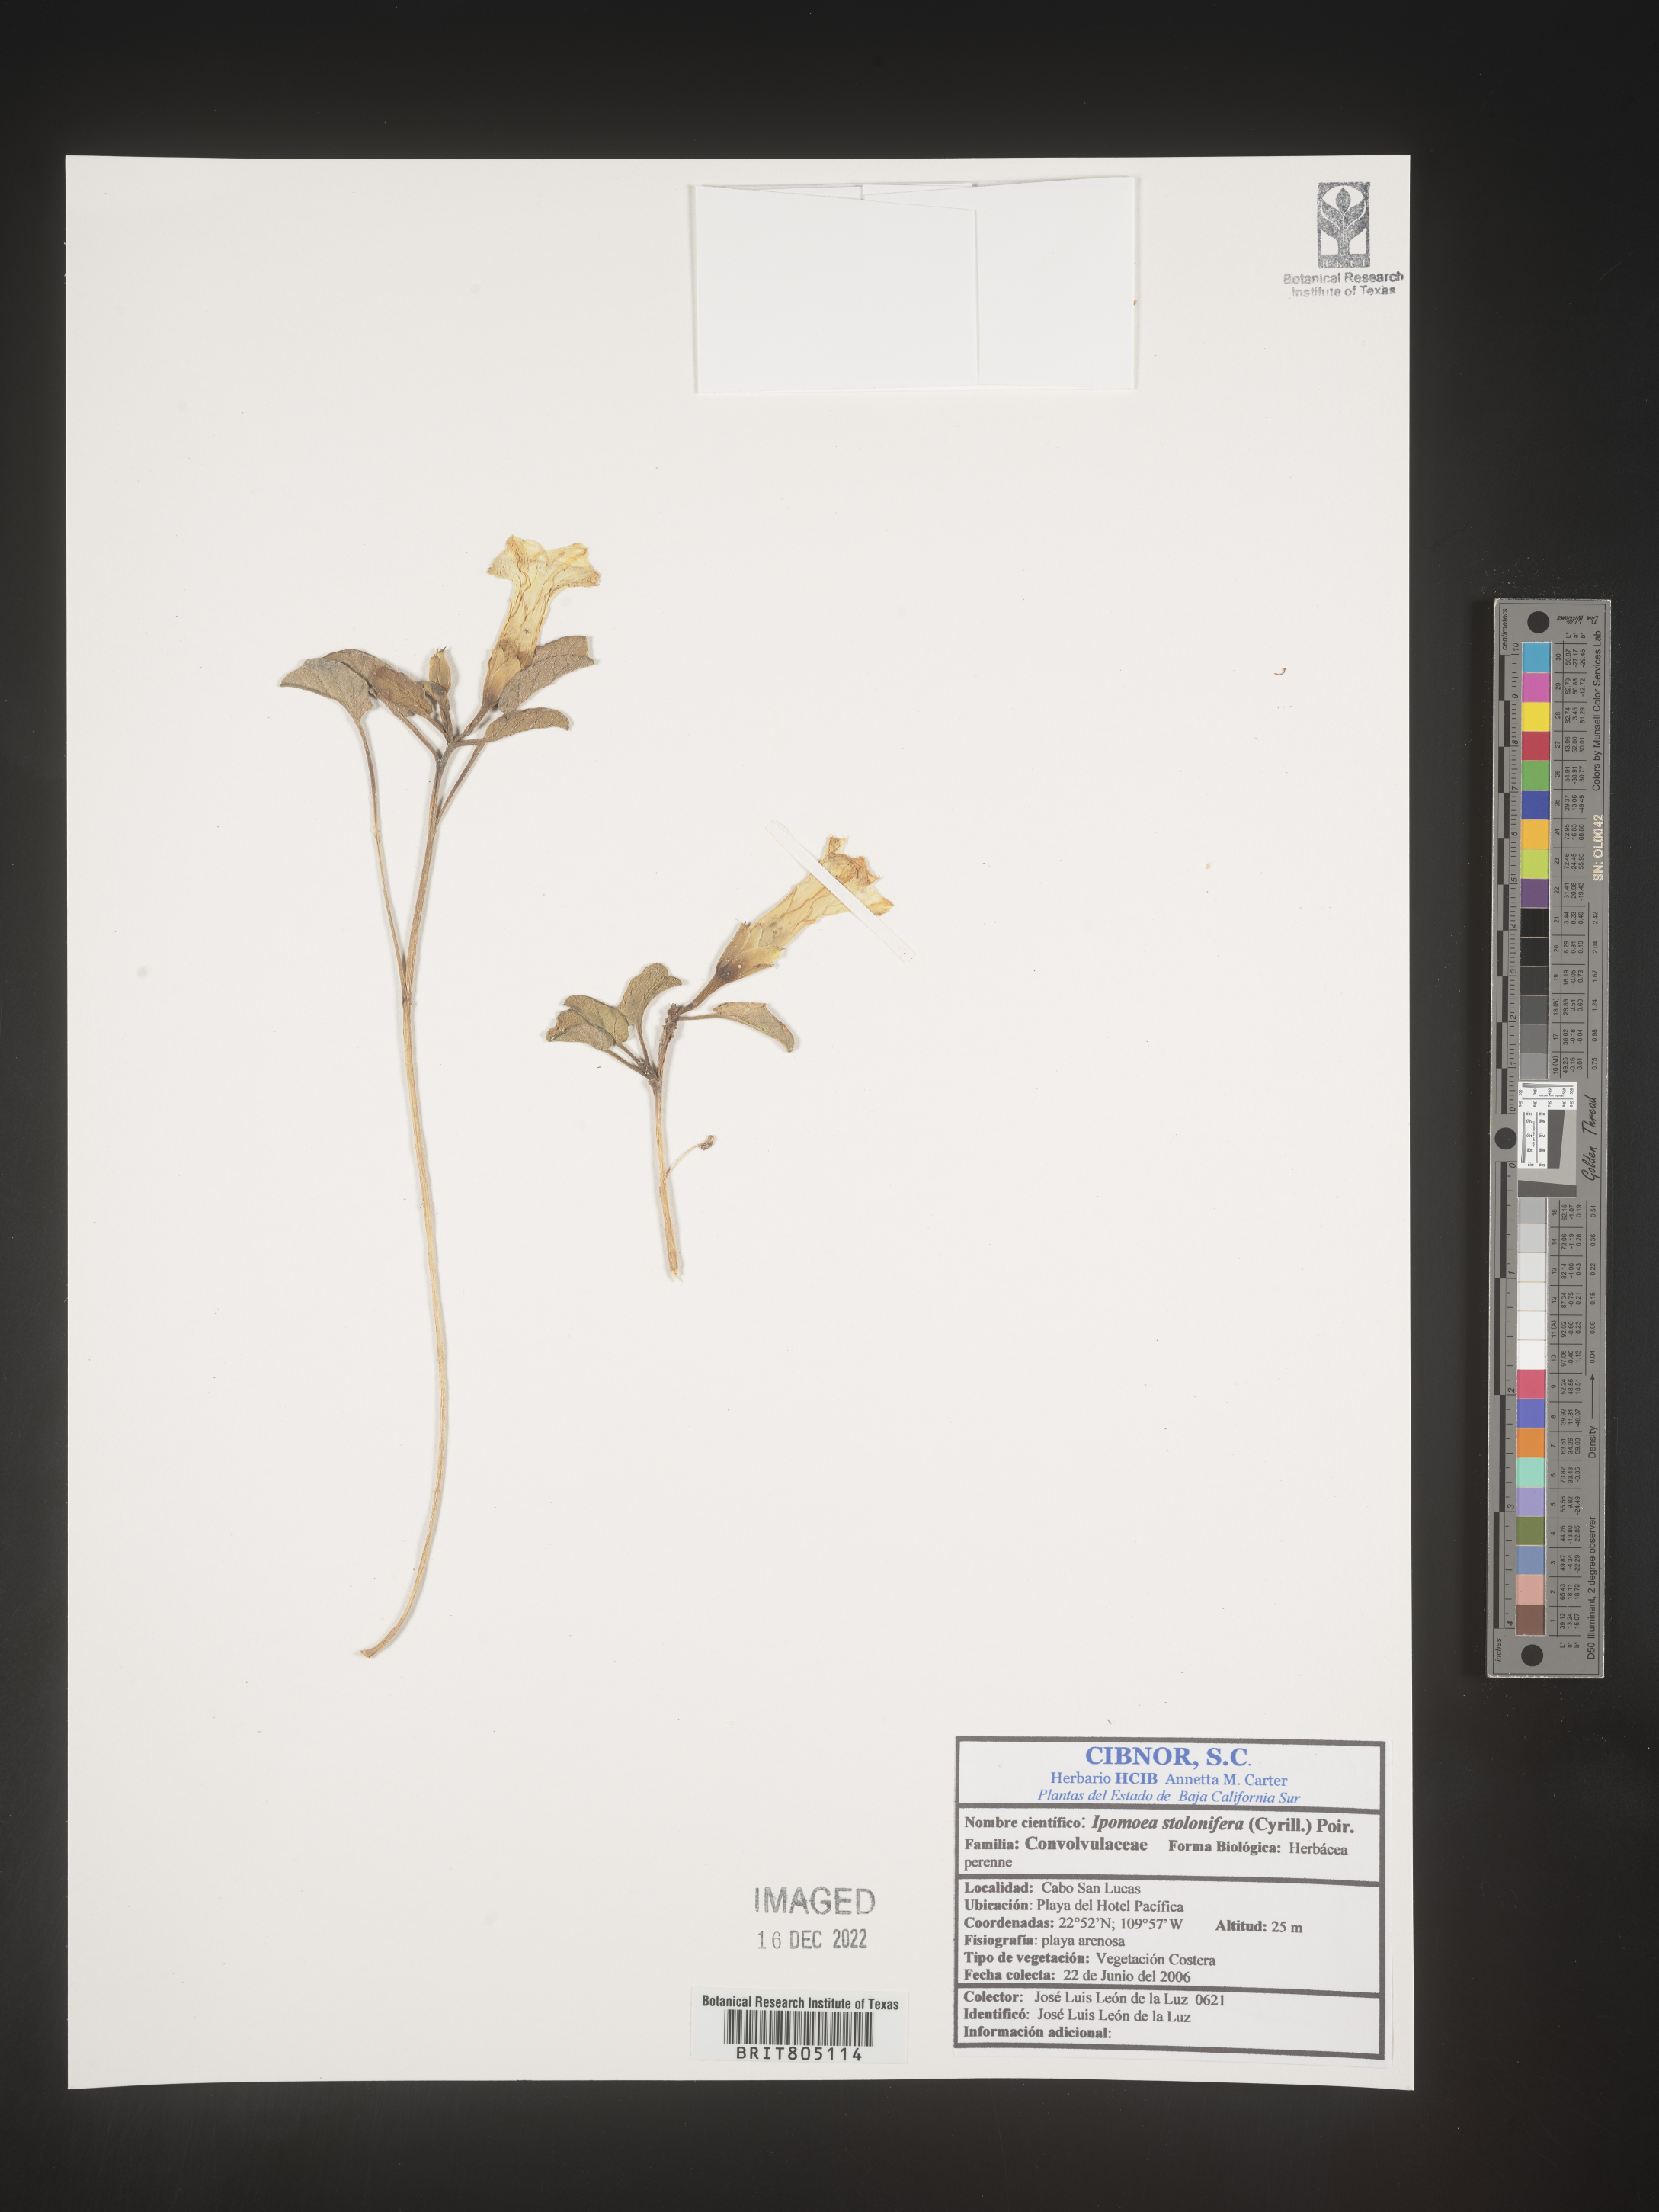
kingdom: Plantae
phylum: Tracheophyta
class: Magnoliopsida
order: Solanales
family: Convolvulaceae
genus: Ipomoea
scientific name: Ipomoea imperati
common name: Fiddle-leaf morning-glory
